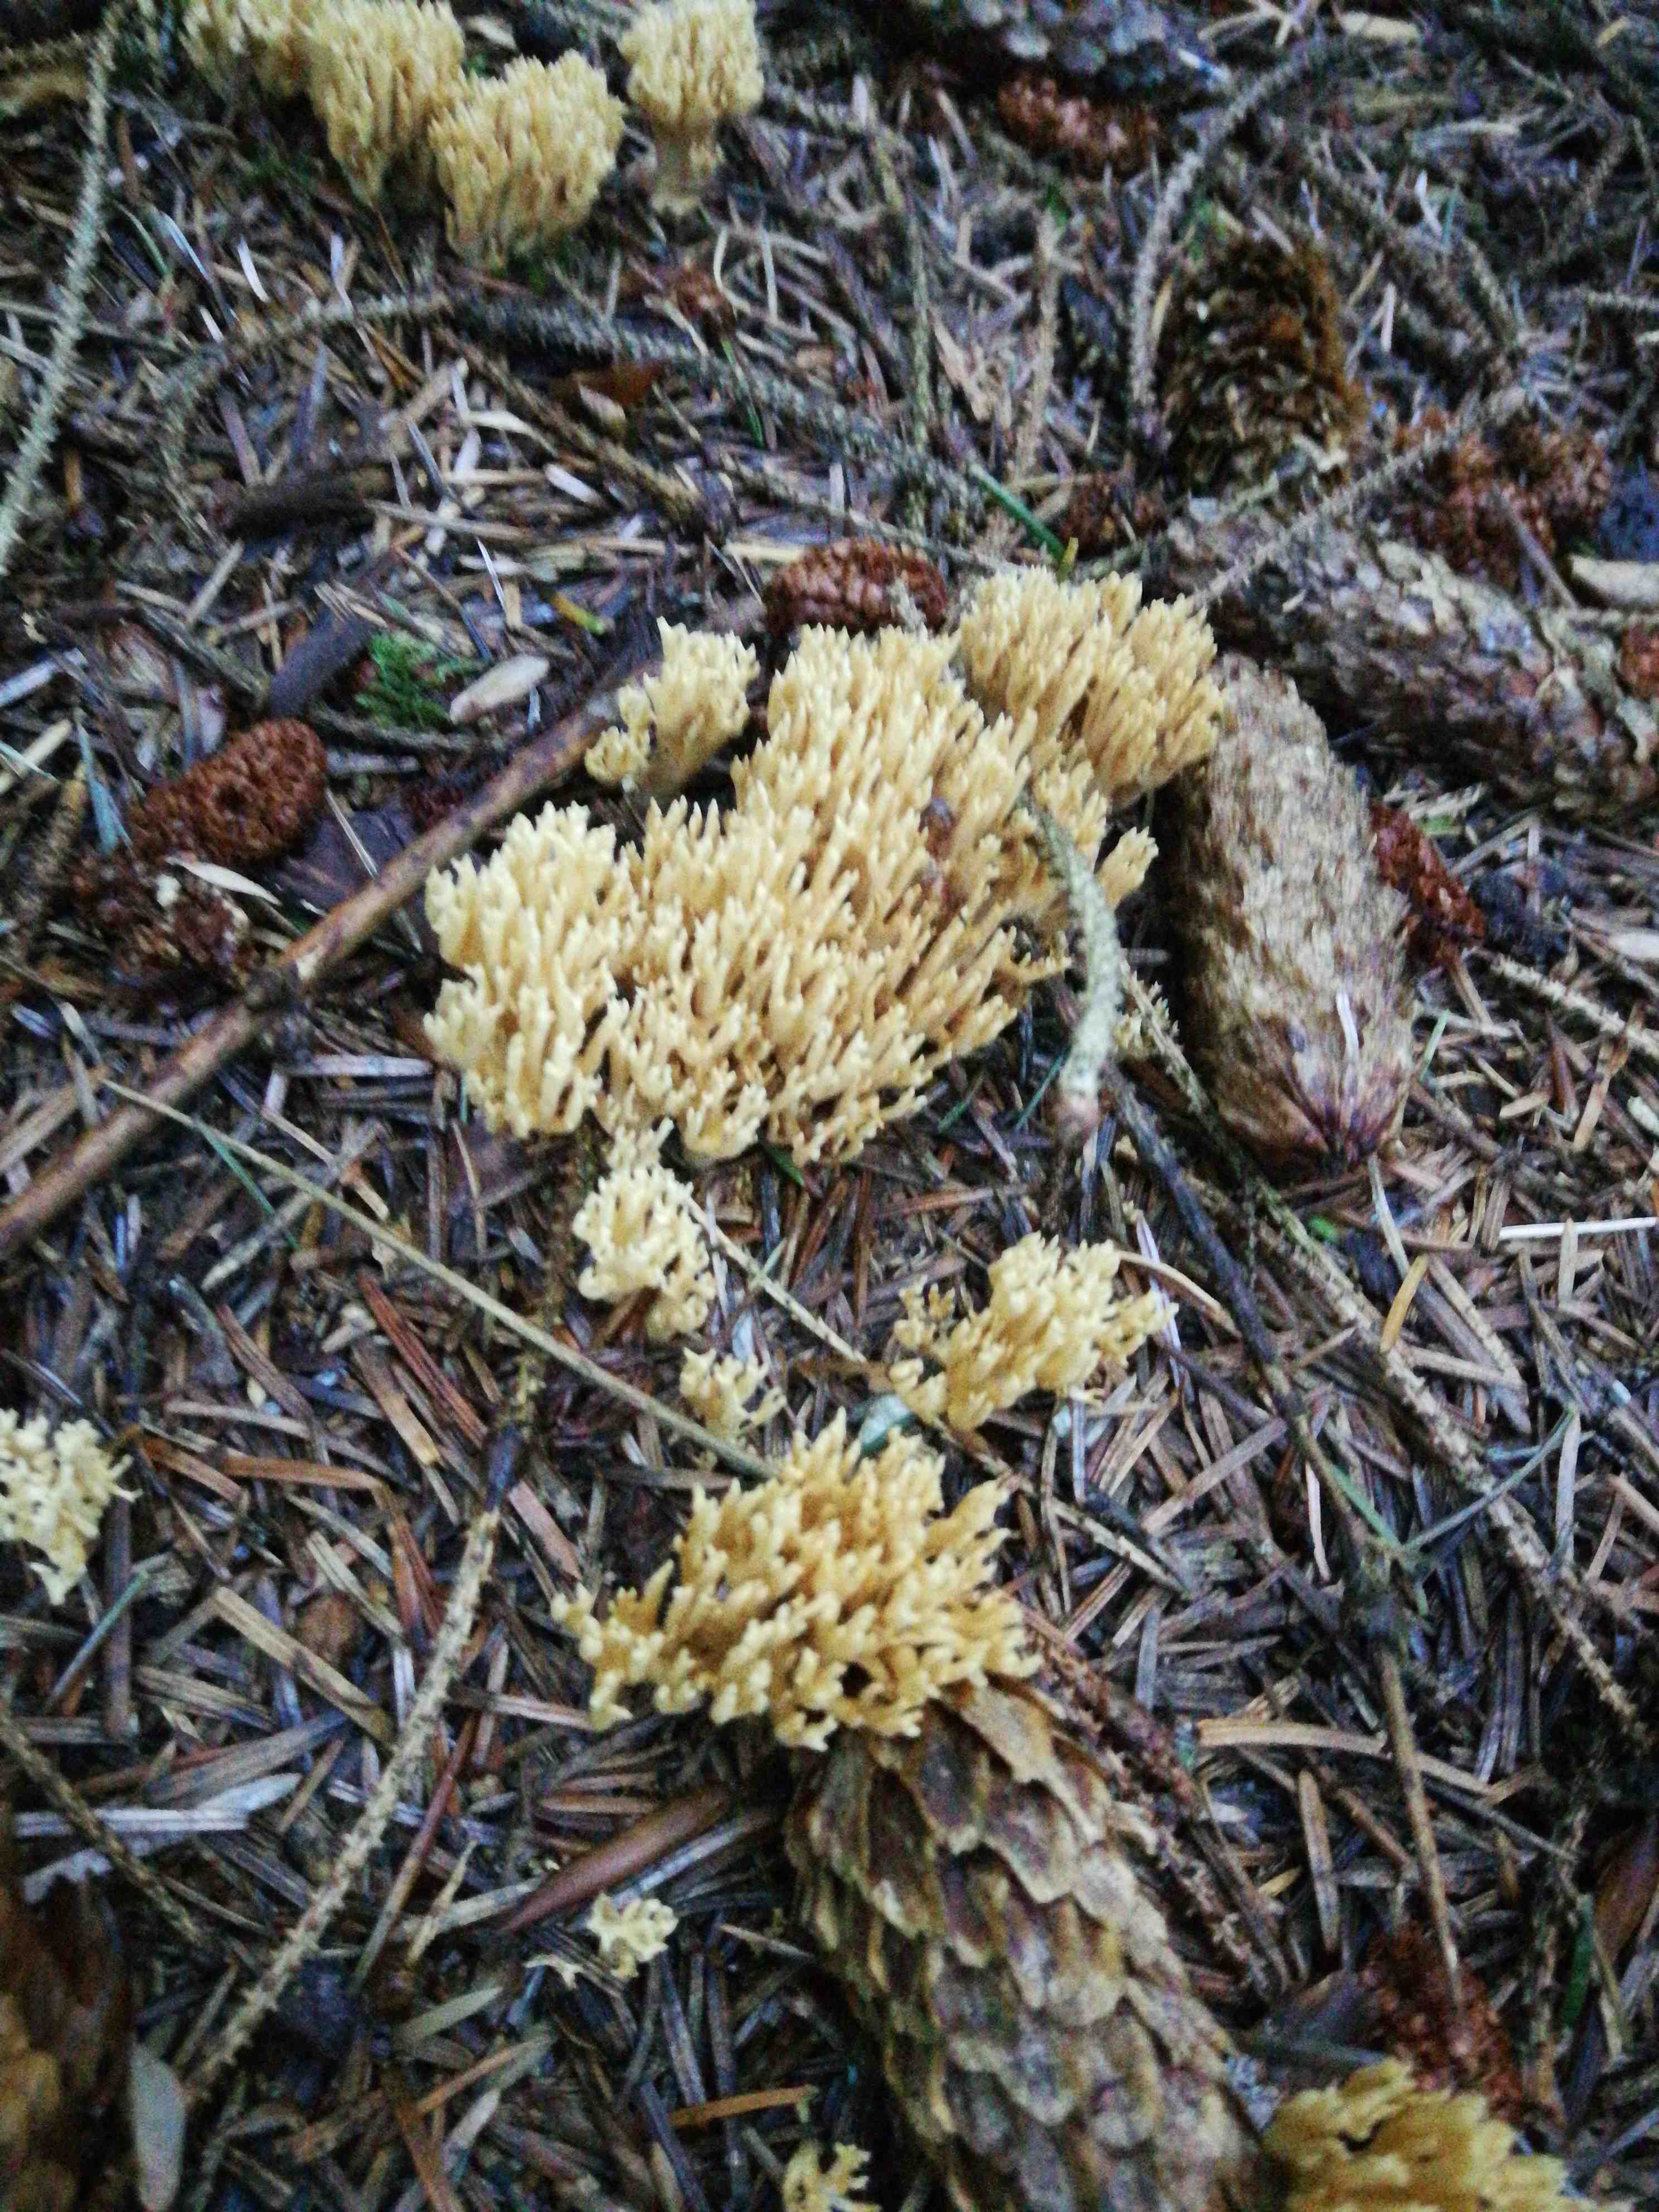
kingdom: Fungi
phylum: Basidiomycota
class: Agaricomycetes
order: Gomphales
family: Gomphaceae
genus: Phaeoclavulina
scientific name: Phaeoclavulina eumorpha
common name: gran-koralsvamp
